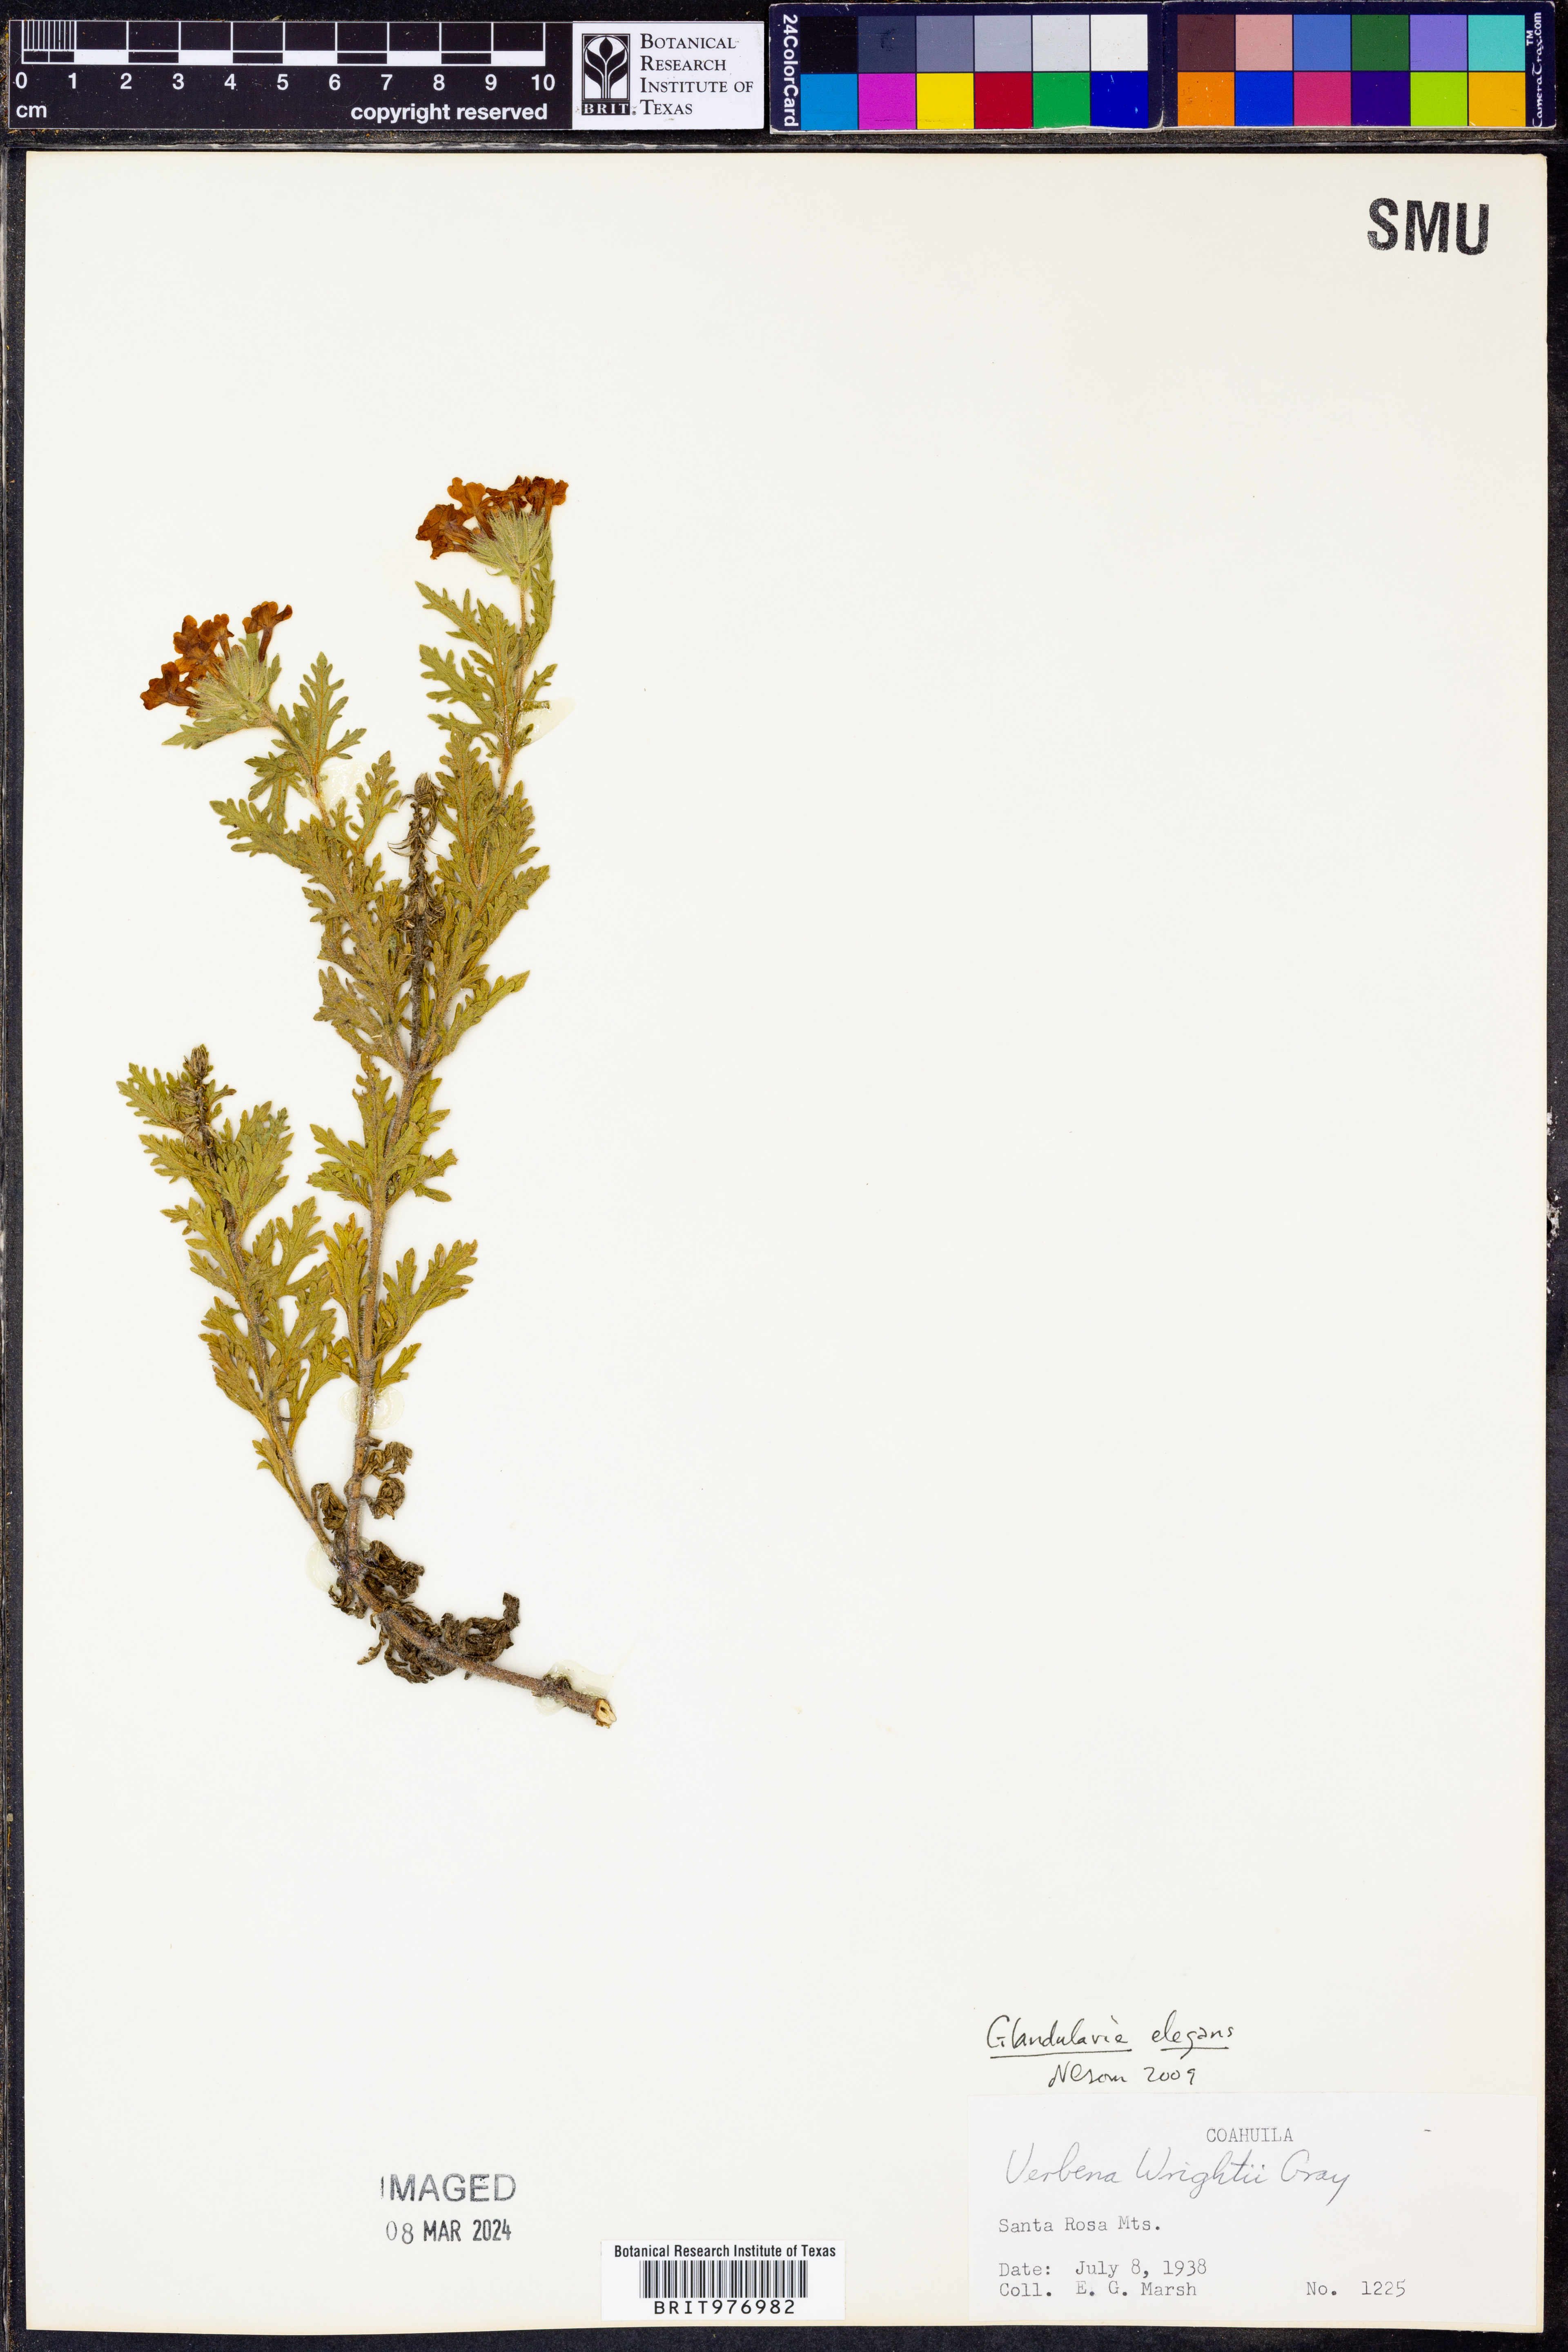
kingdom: Plantae
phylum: Tracheophyta
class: Magnoliopsida
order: Lamiales
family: Verbenaceae
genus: Verbena
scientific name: Verbena elegans
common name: Elegant vervain
